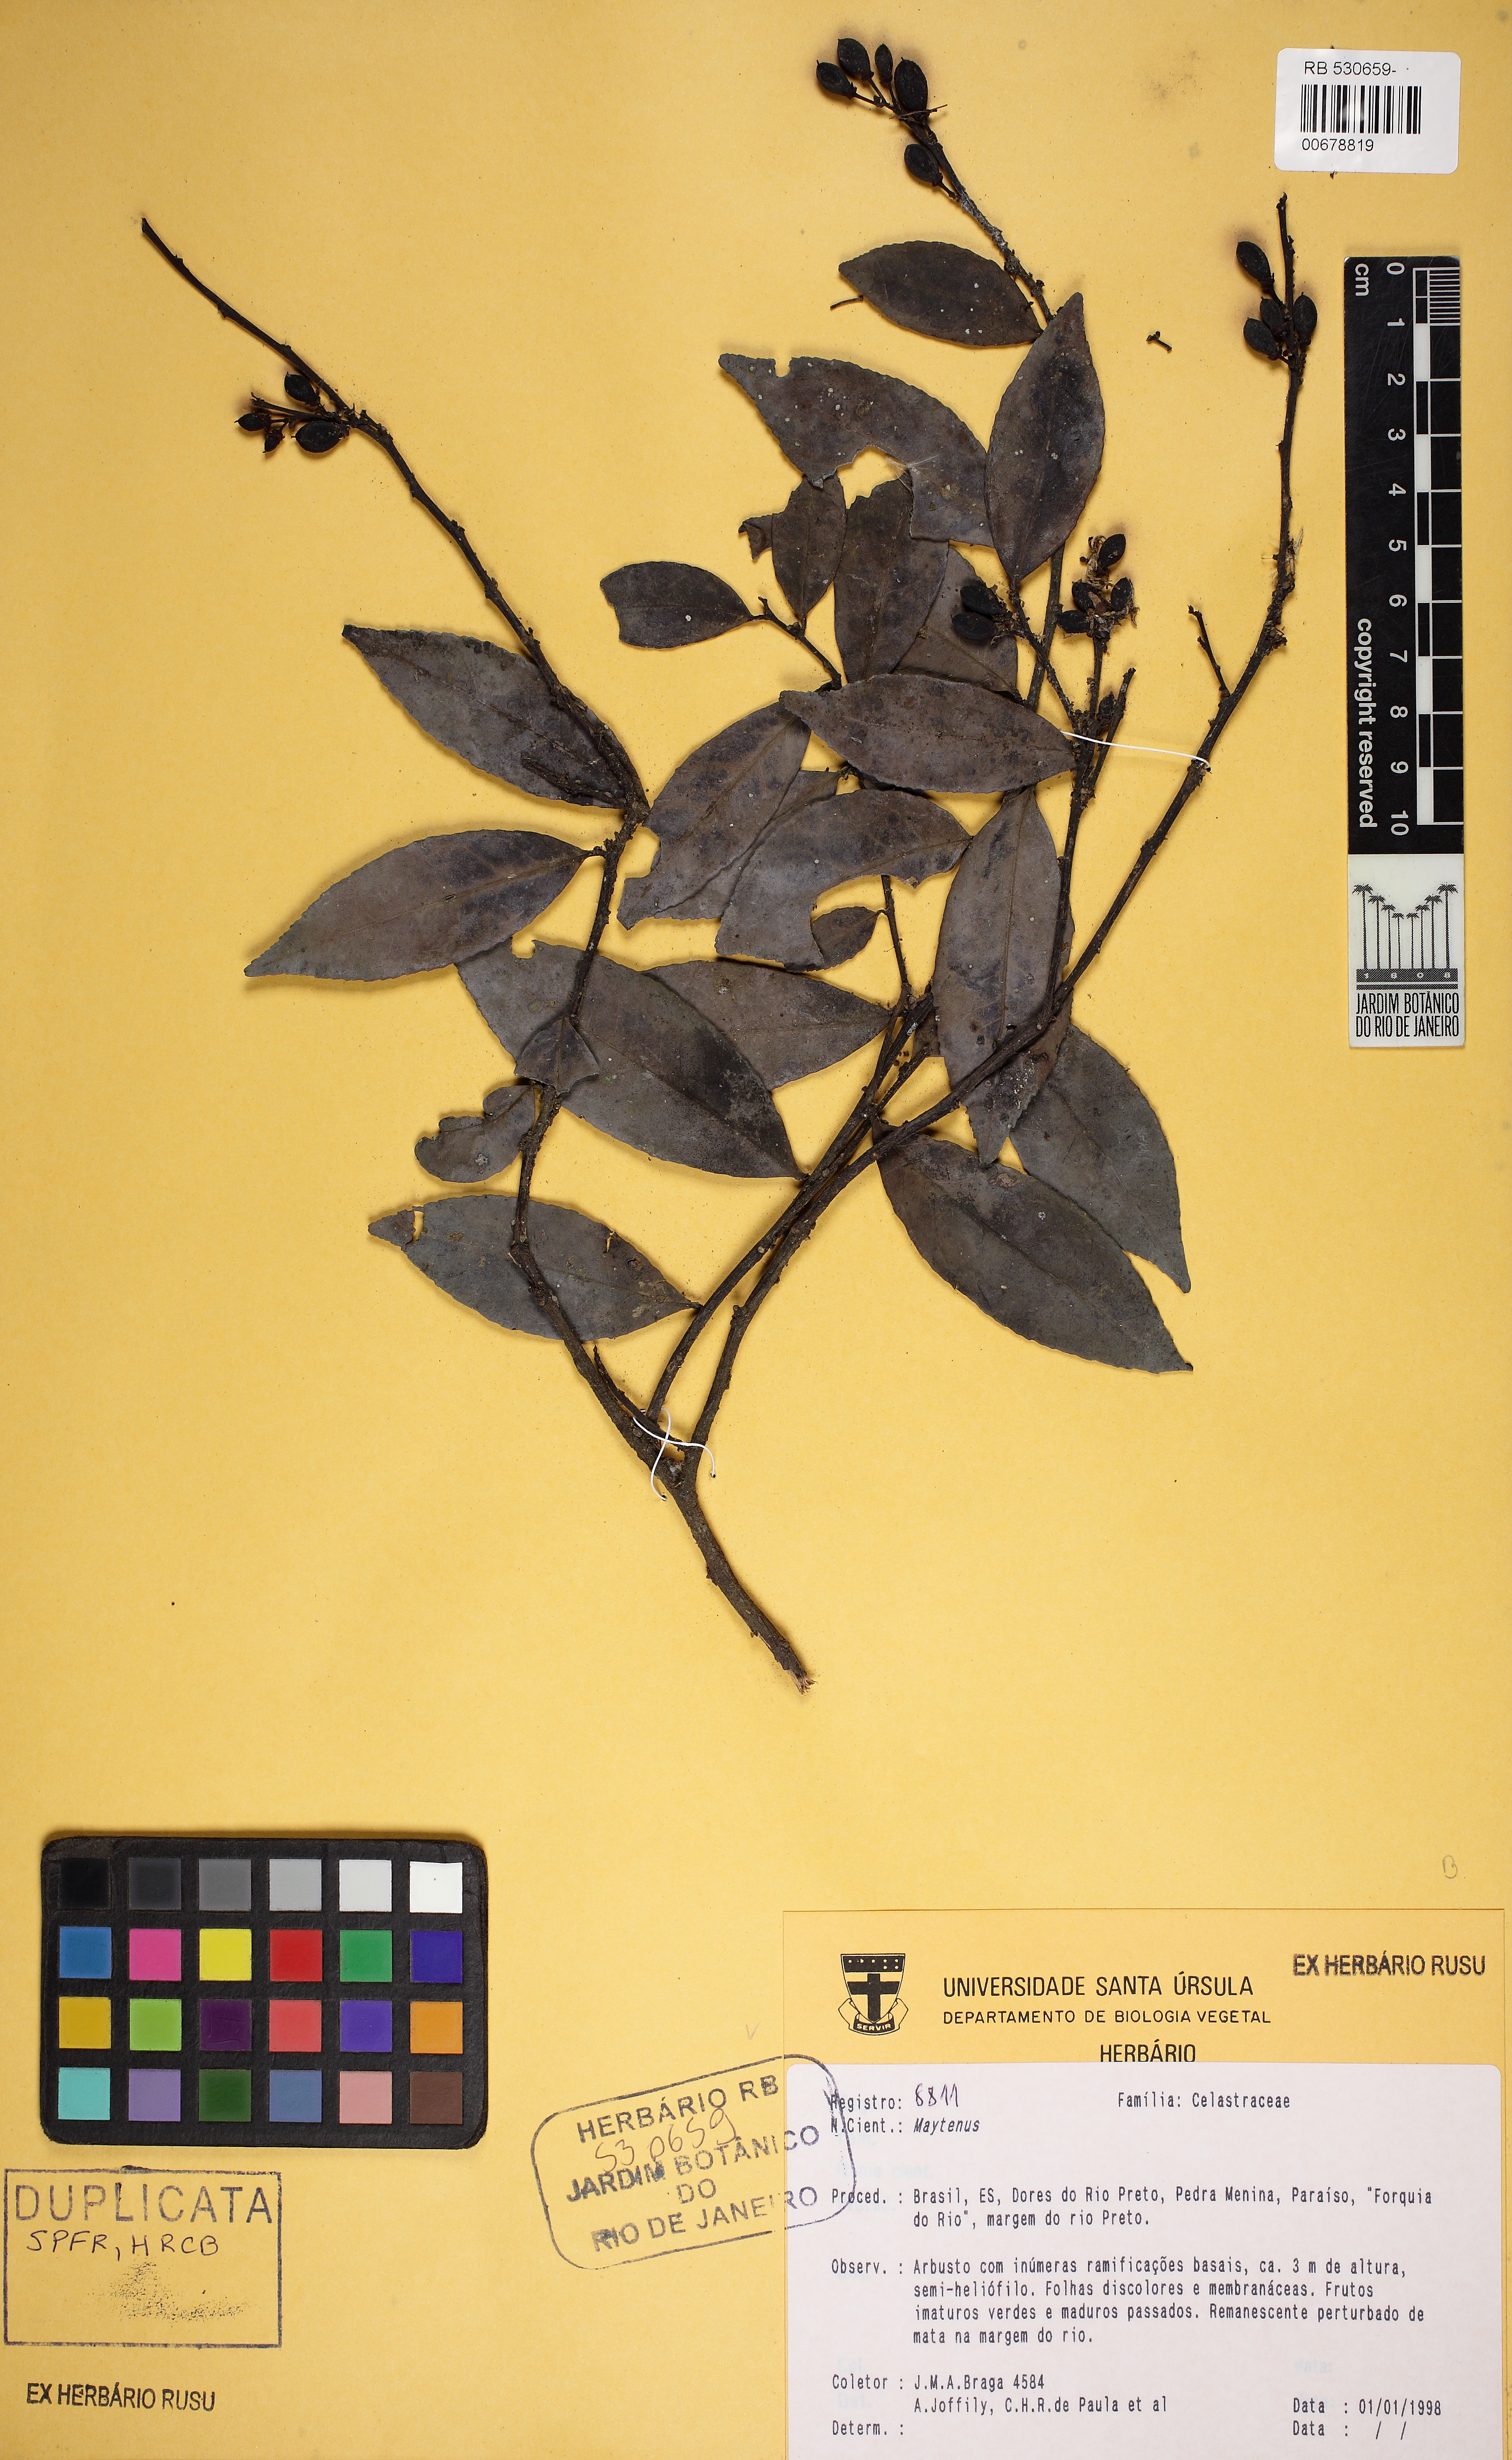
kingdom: Plantae
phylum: Tracheophyta
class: Magnoliopsida
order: Celastrales
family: Celastraceae
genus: Monteverdia
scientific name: Monteverdia schumanniana
